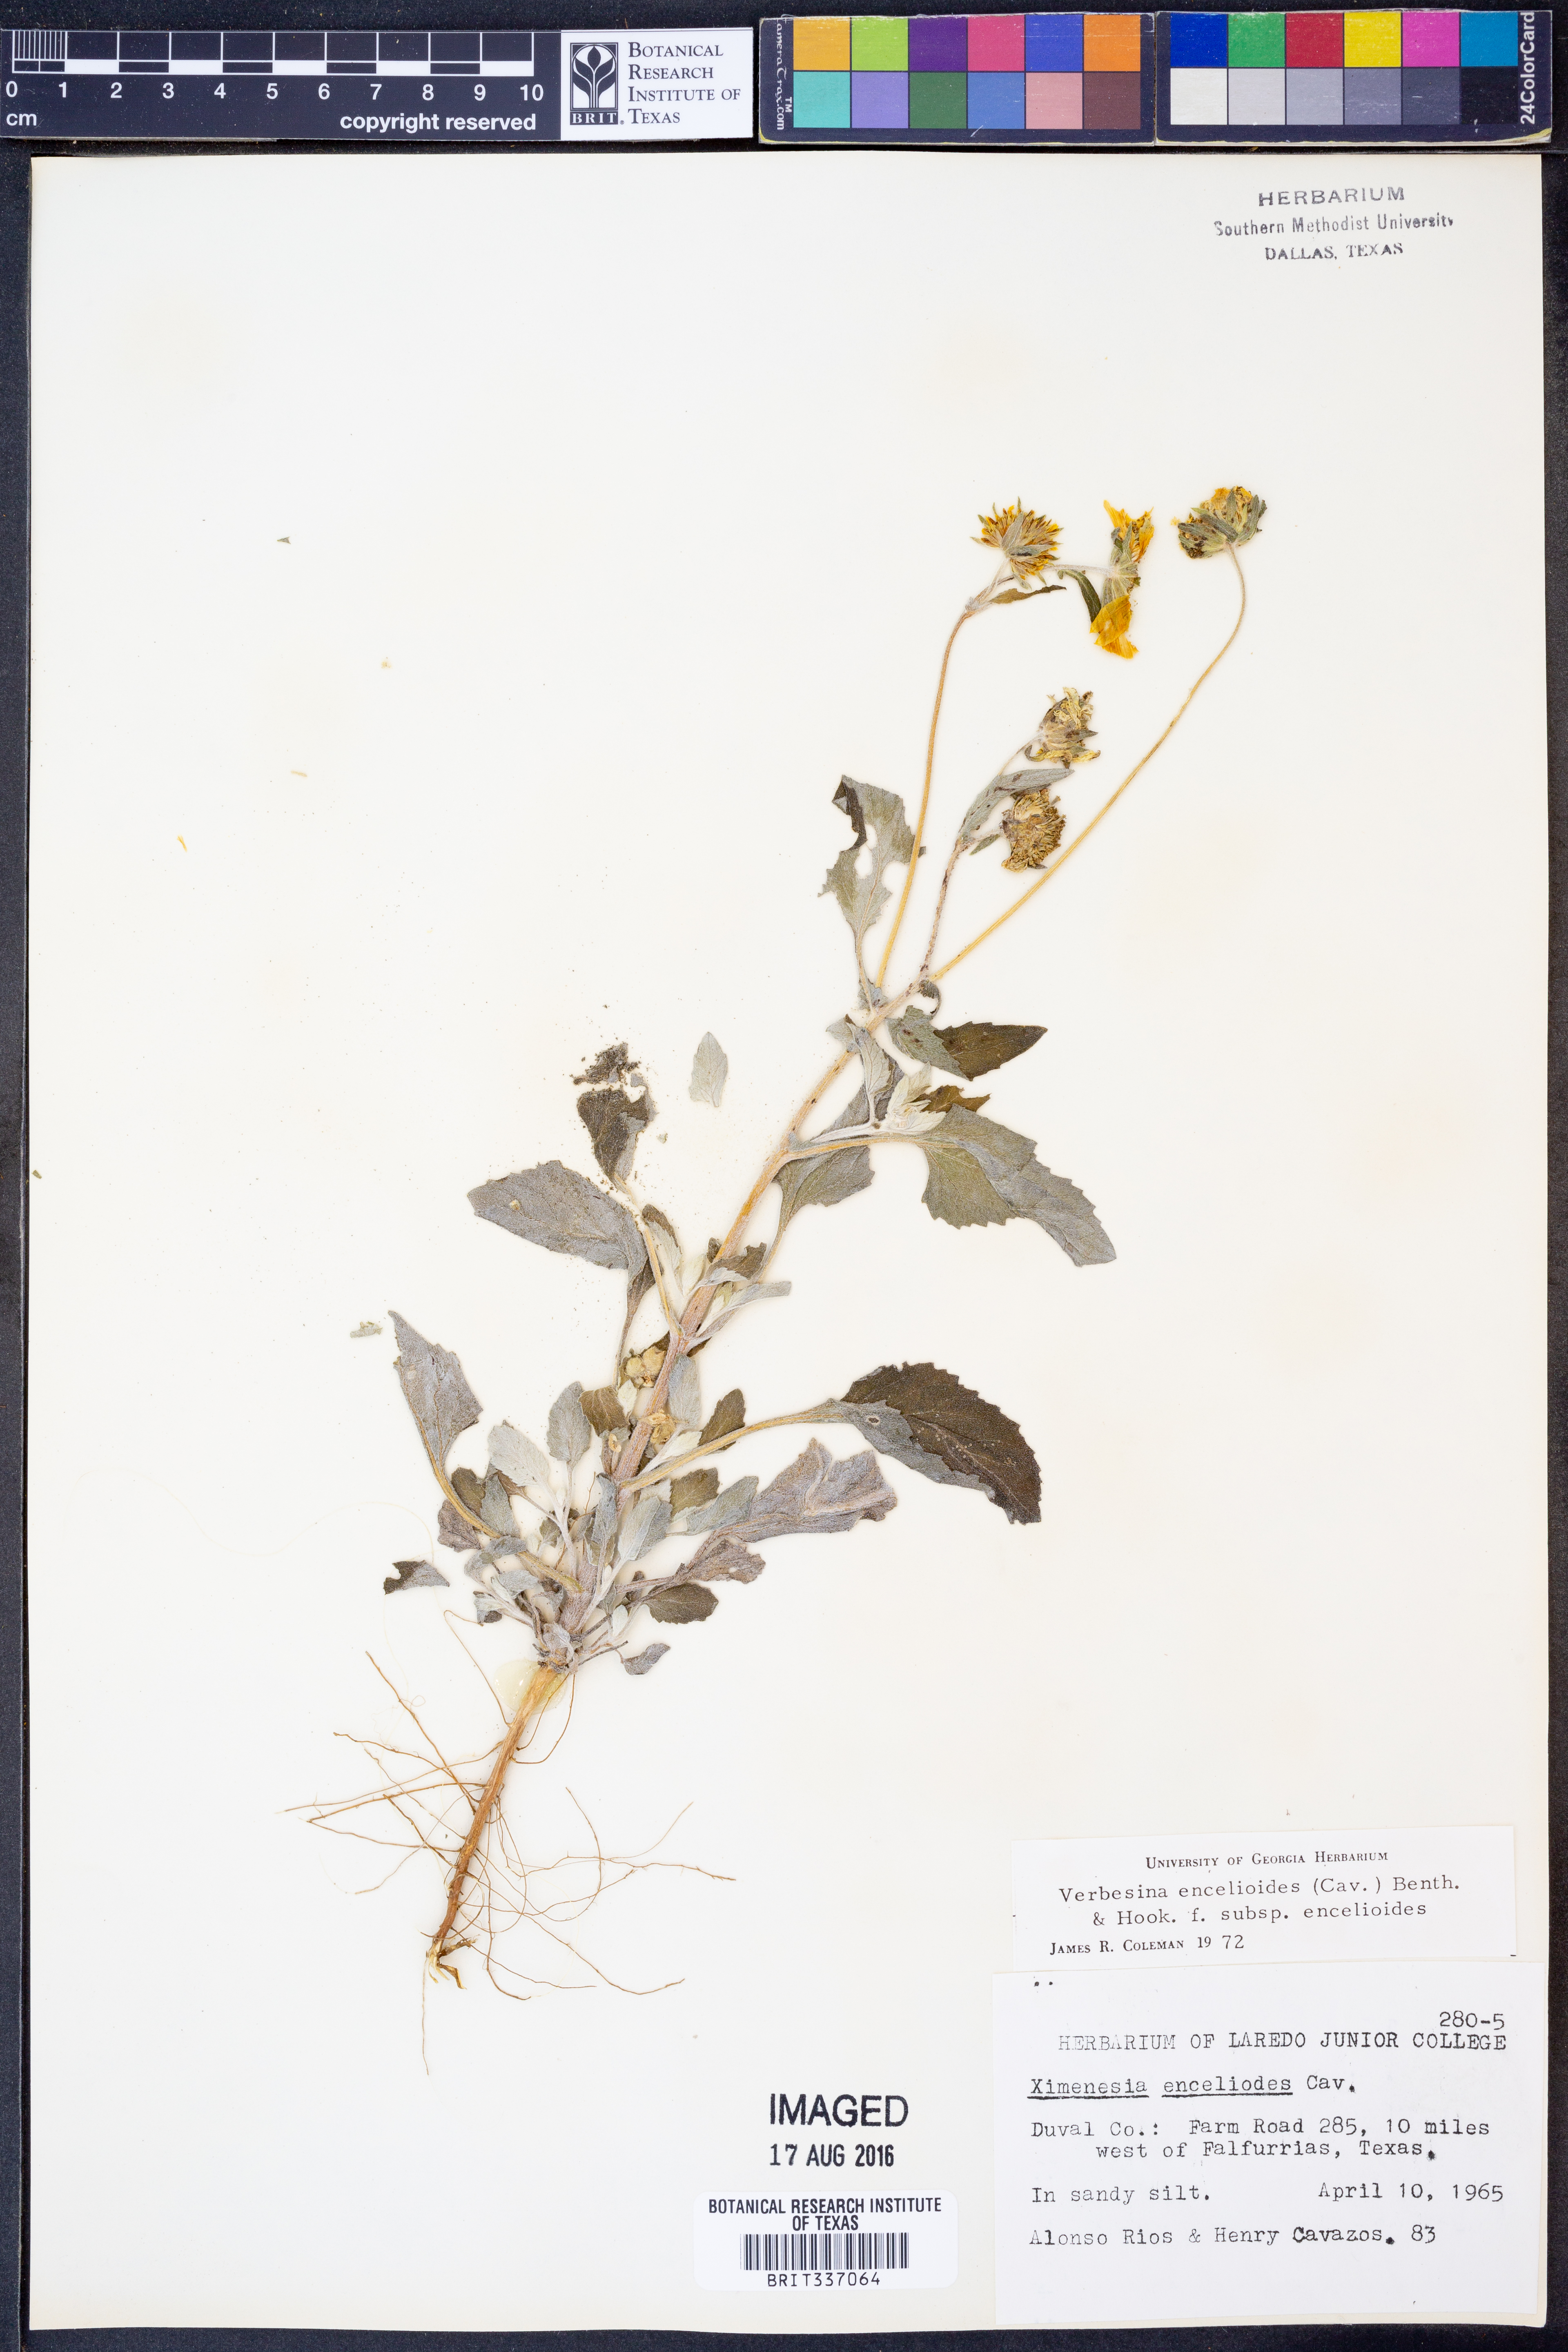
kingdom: Plantae
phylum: Tracheophyta
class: Magnoliopsida
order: Asterales
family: Asteraceae
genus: Verbesina
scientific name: Verbesina encelioides
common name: Golden crownbeard
